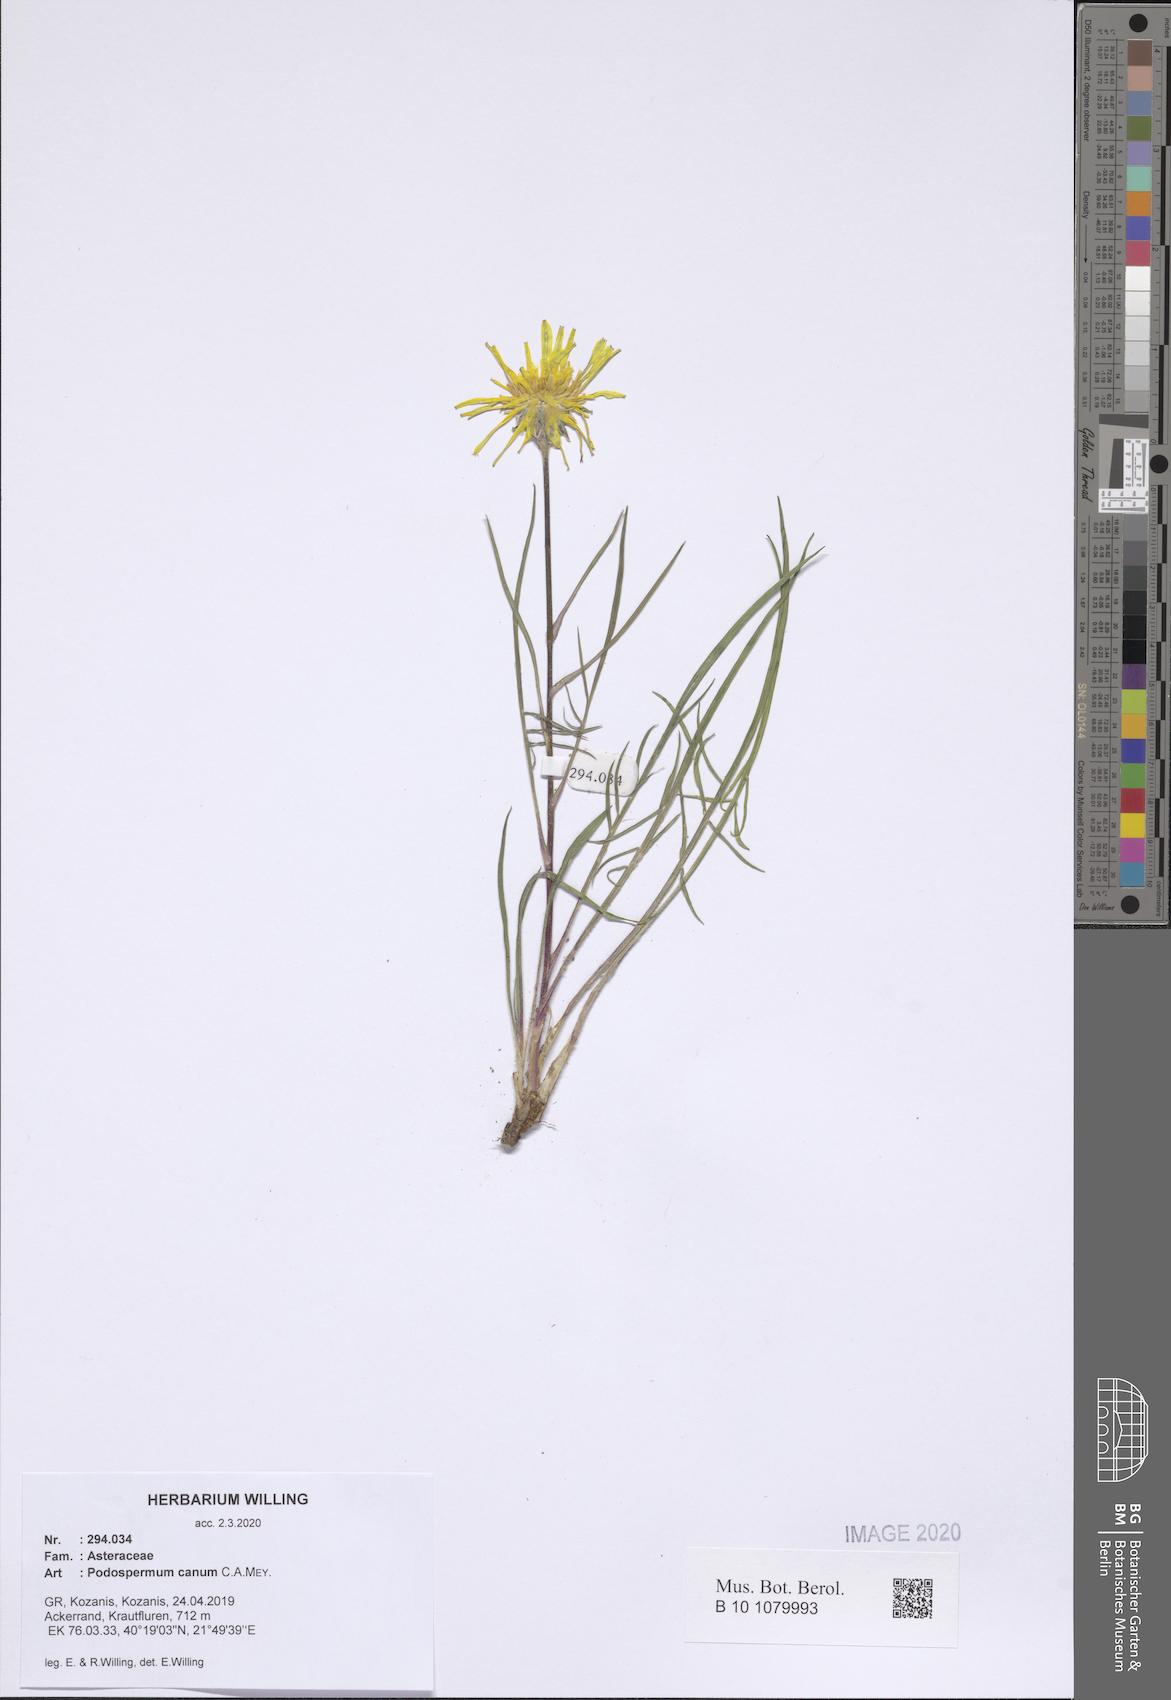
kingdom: Plantae
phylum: Tracheophyta
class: Magnoliopsida
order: Asterales
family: Asteraceae
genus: Scorzonera
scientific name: Scorzonera cana
